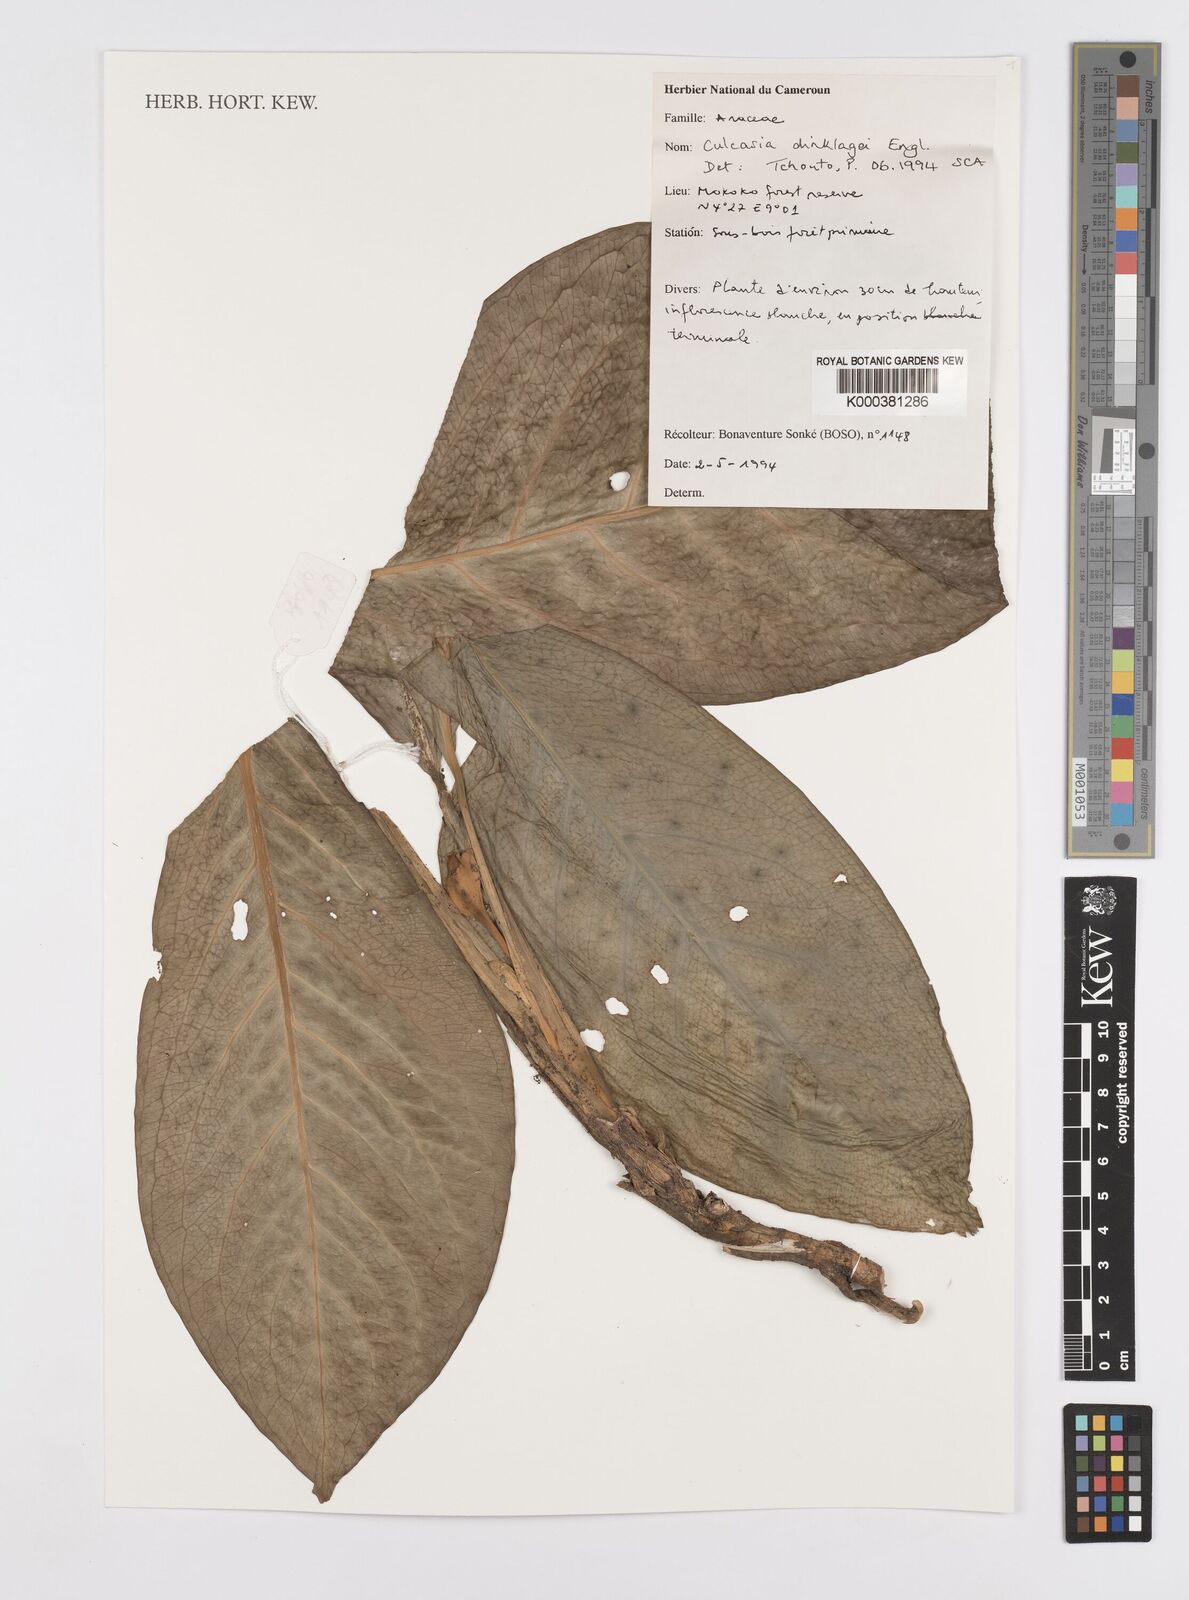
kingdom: Plantae
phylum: Tracheophyta
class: Liliopsida
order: Alismatales
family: Araceae
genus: Culcasia
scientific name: Culcasia dinklagei
